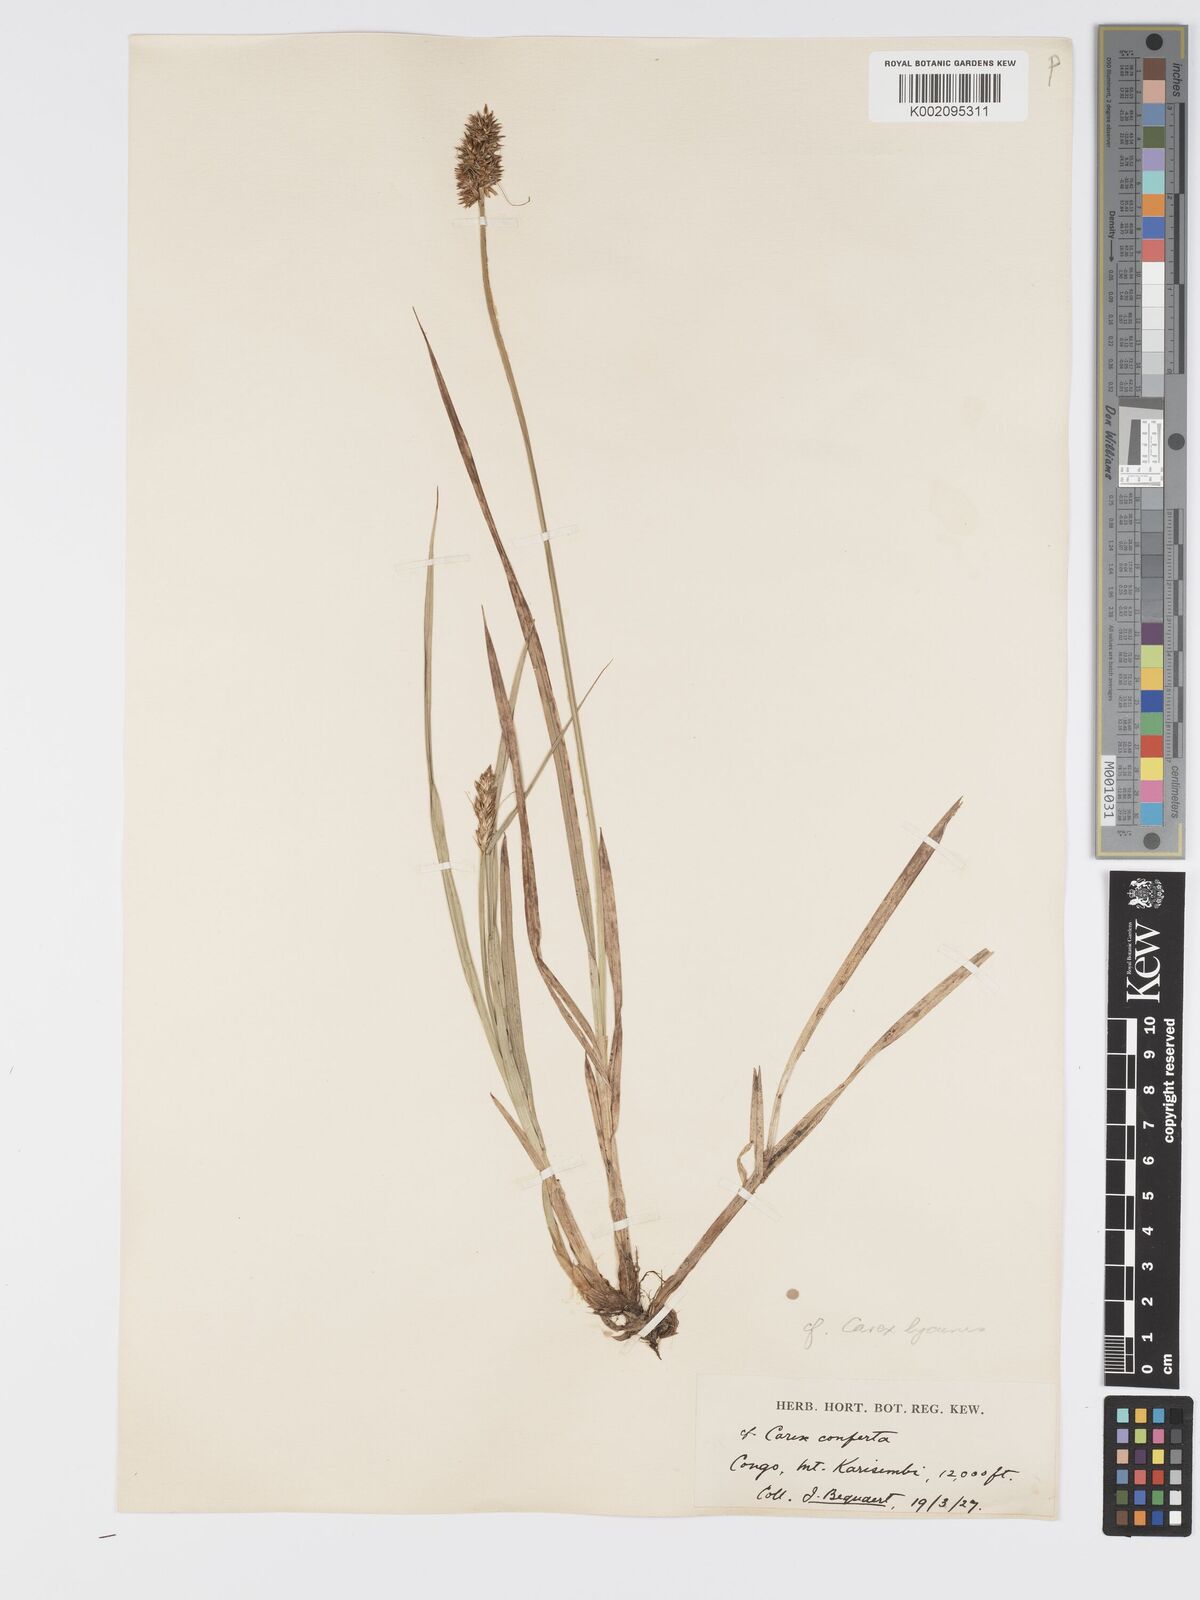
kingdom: Plantae
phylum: Tracheophyta
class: Liliopsida
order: Poales
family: Cyperaceae
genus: Carex
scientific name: Carex lycurus
